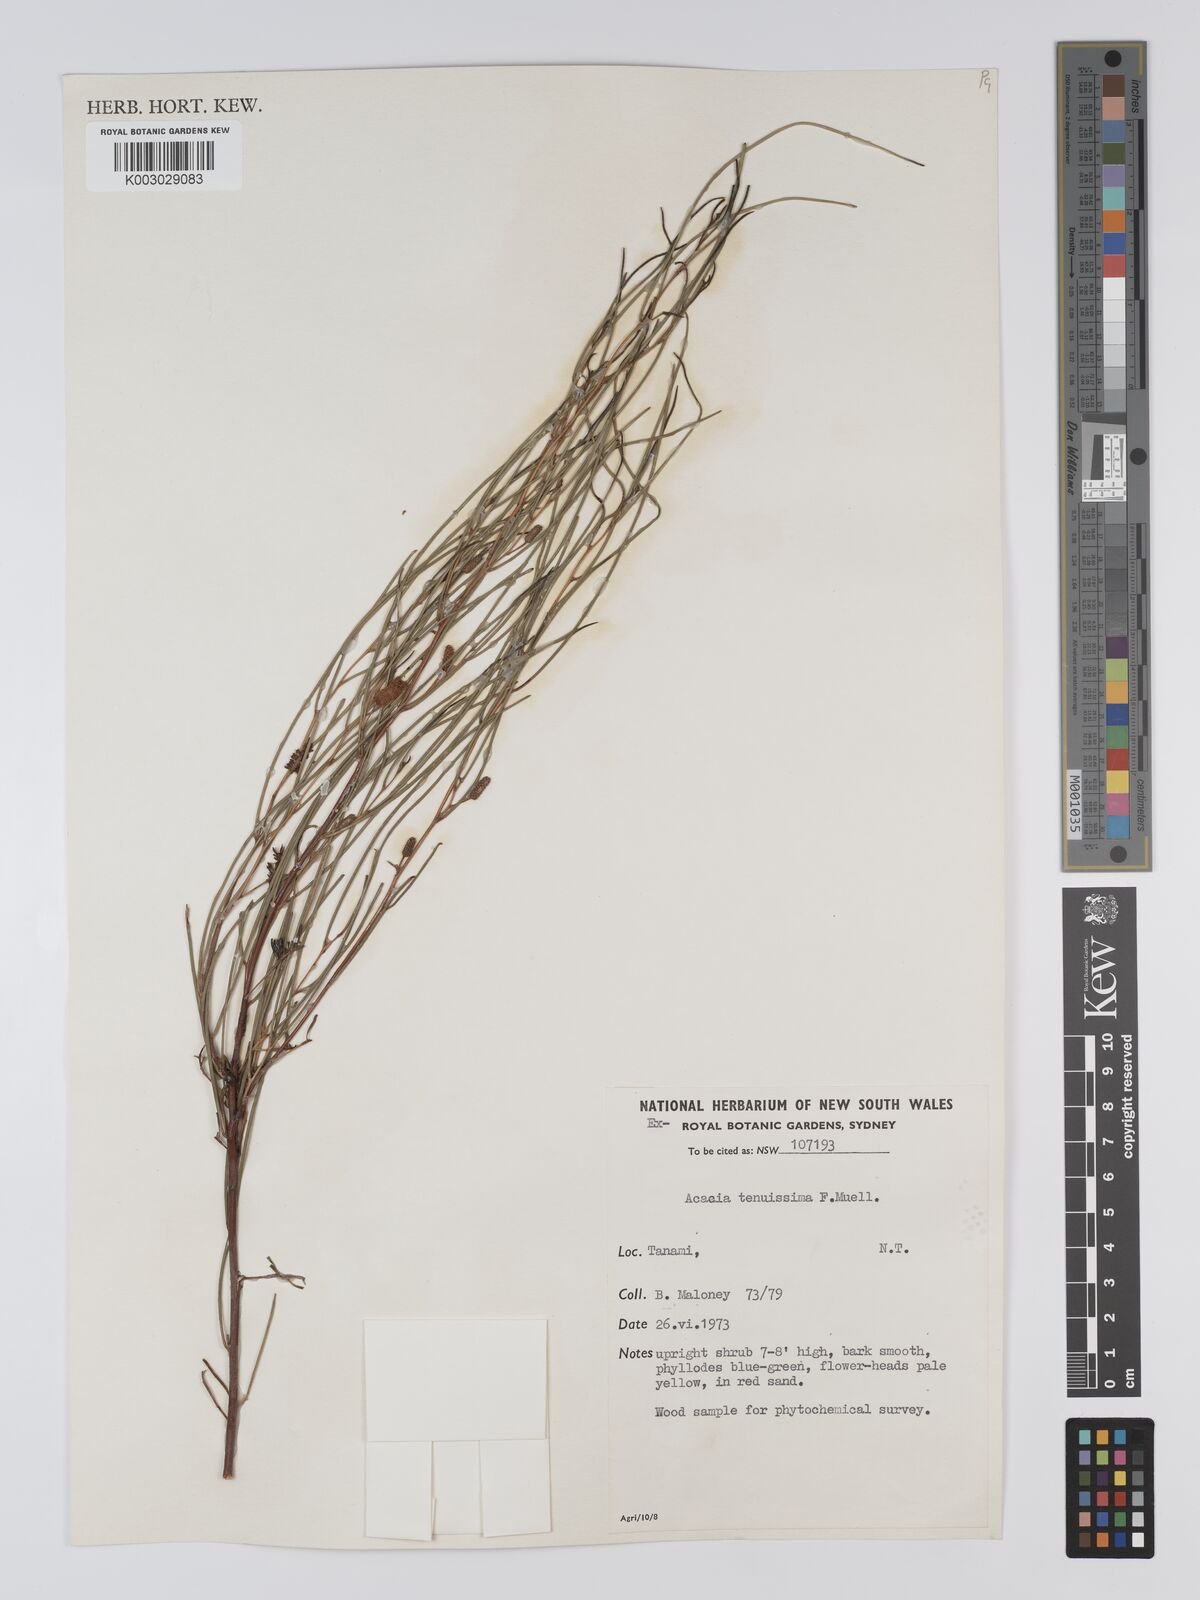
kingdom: Plantae
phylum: Tracheophyta
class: Magnoliopsida
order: Fabales
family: Fabaceae
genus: Acacia
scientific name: Acacia tenuissima
